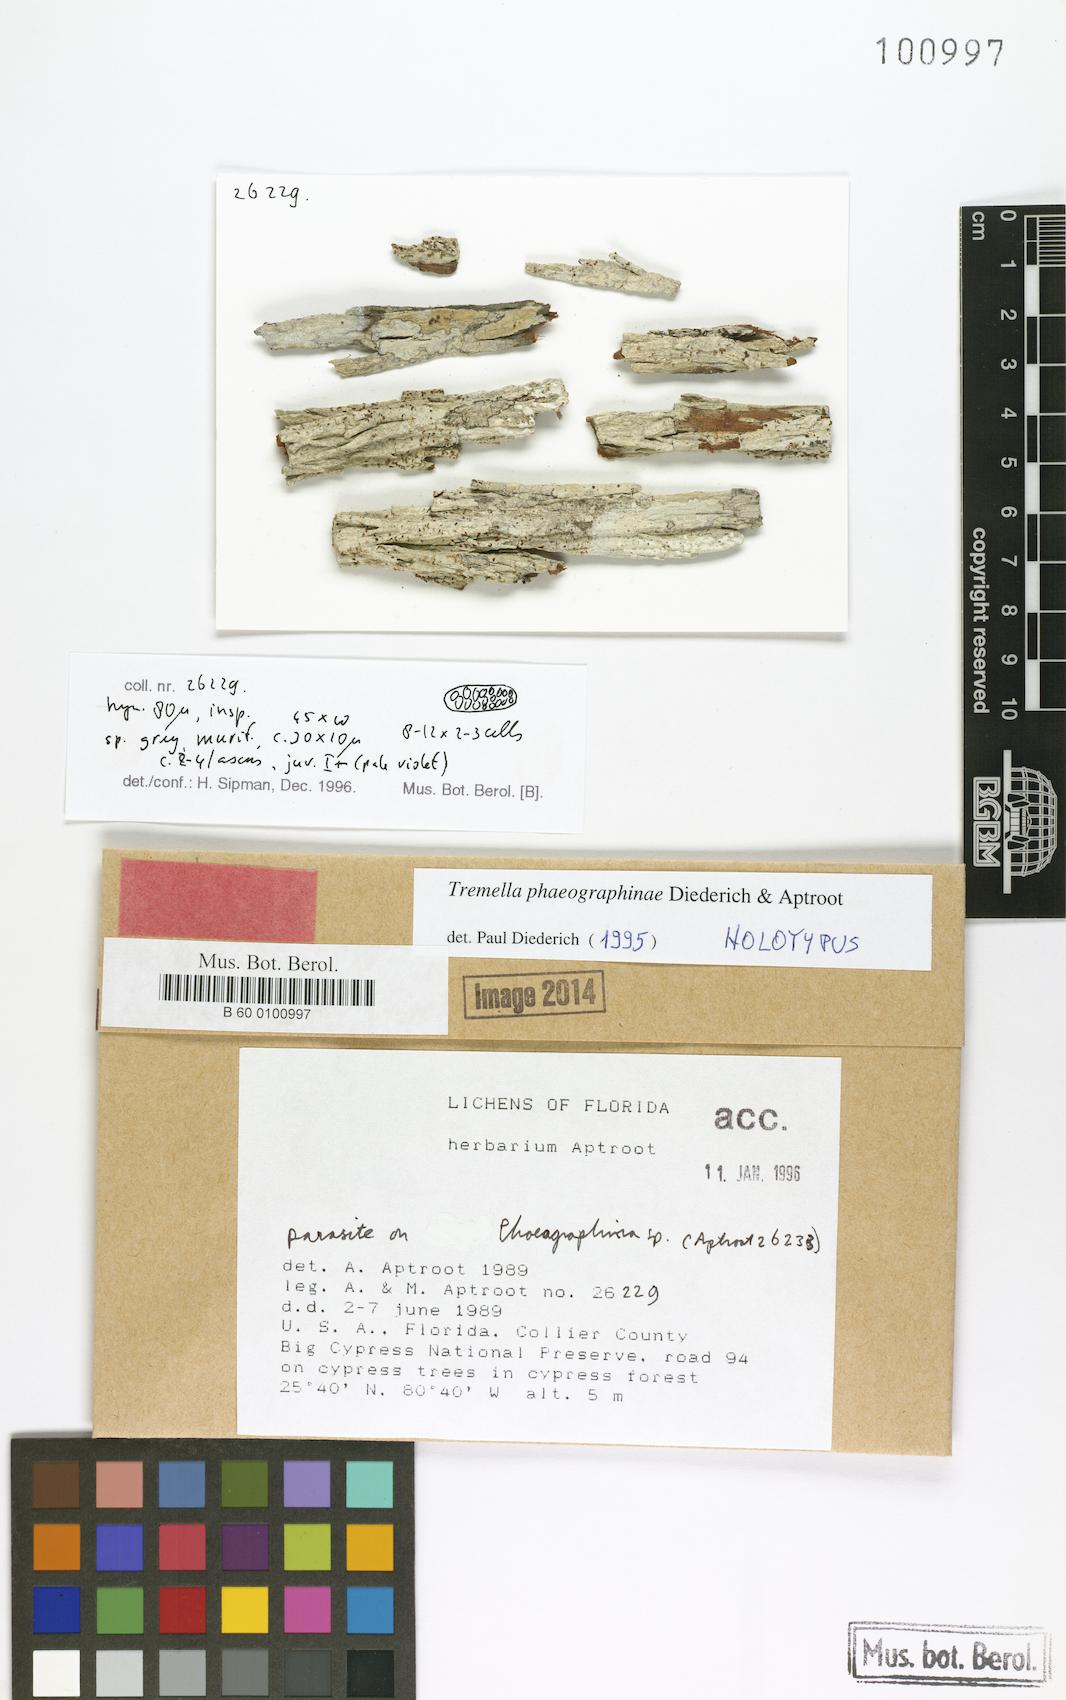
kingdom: Fungi
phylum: Basidiomycota
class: Tremellomycetes
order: Tremellales
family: Tremellaceae
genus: Tremella
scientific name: Tremella phaeographinae
